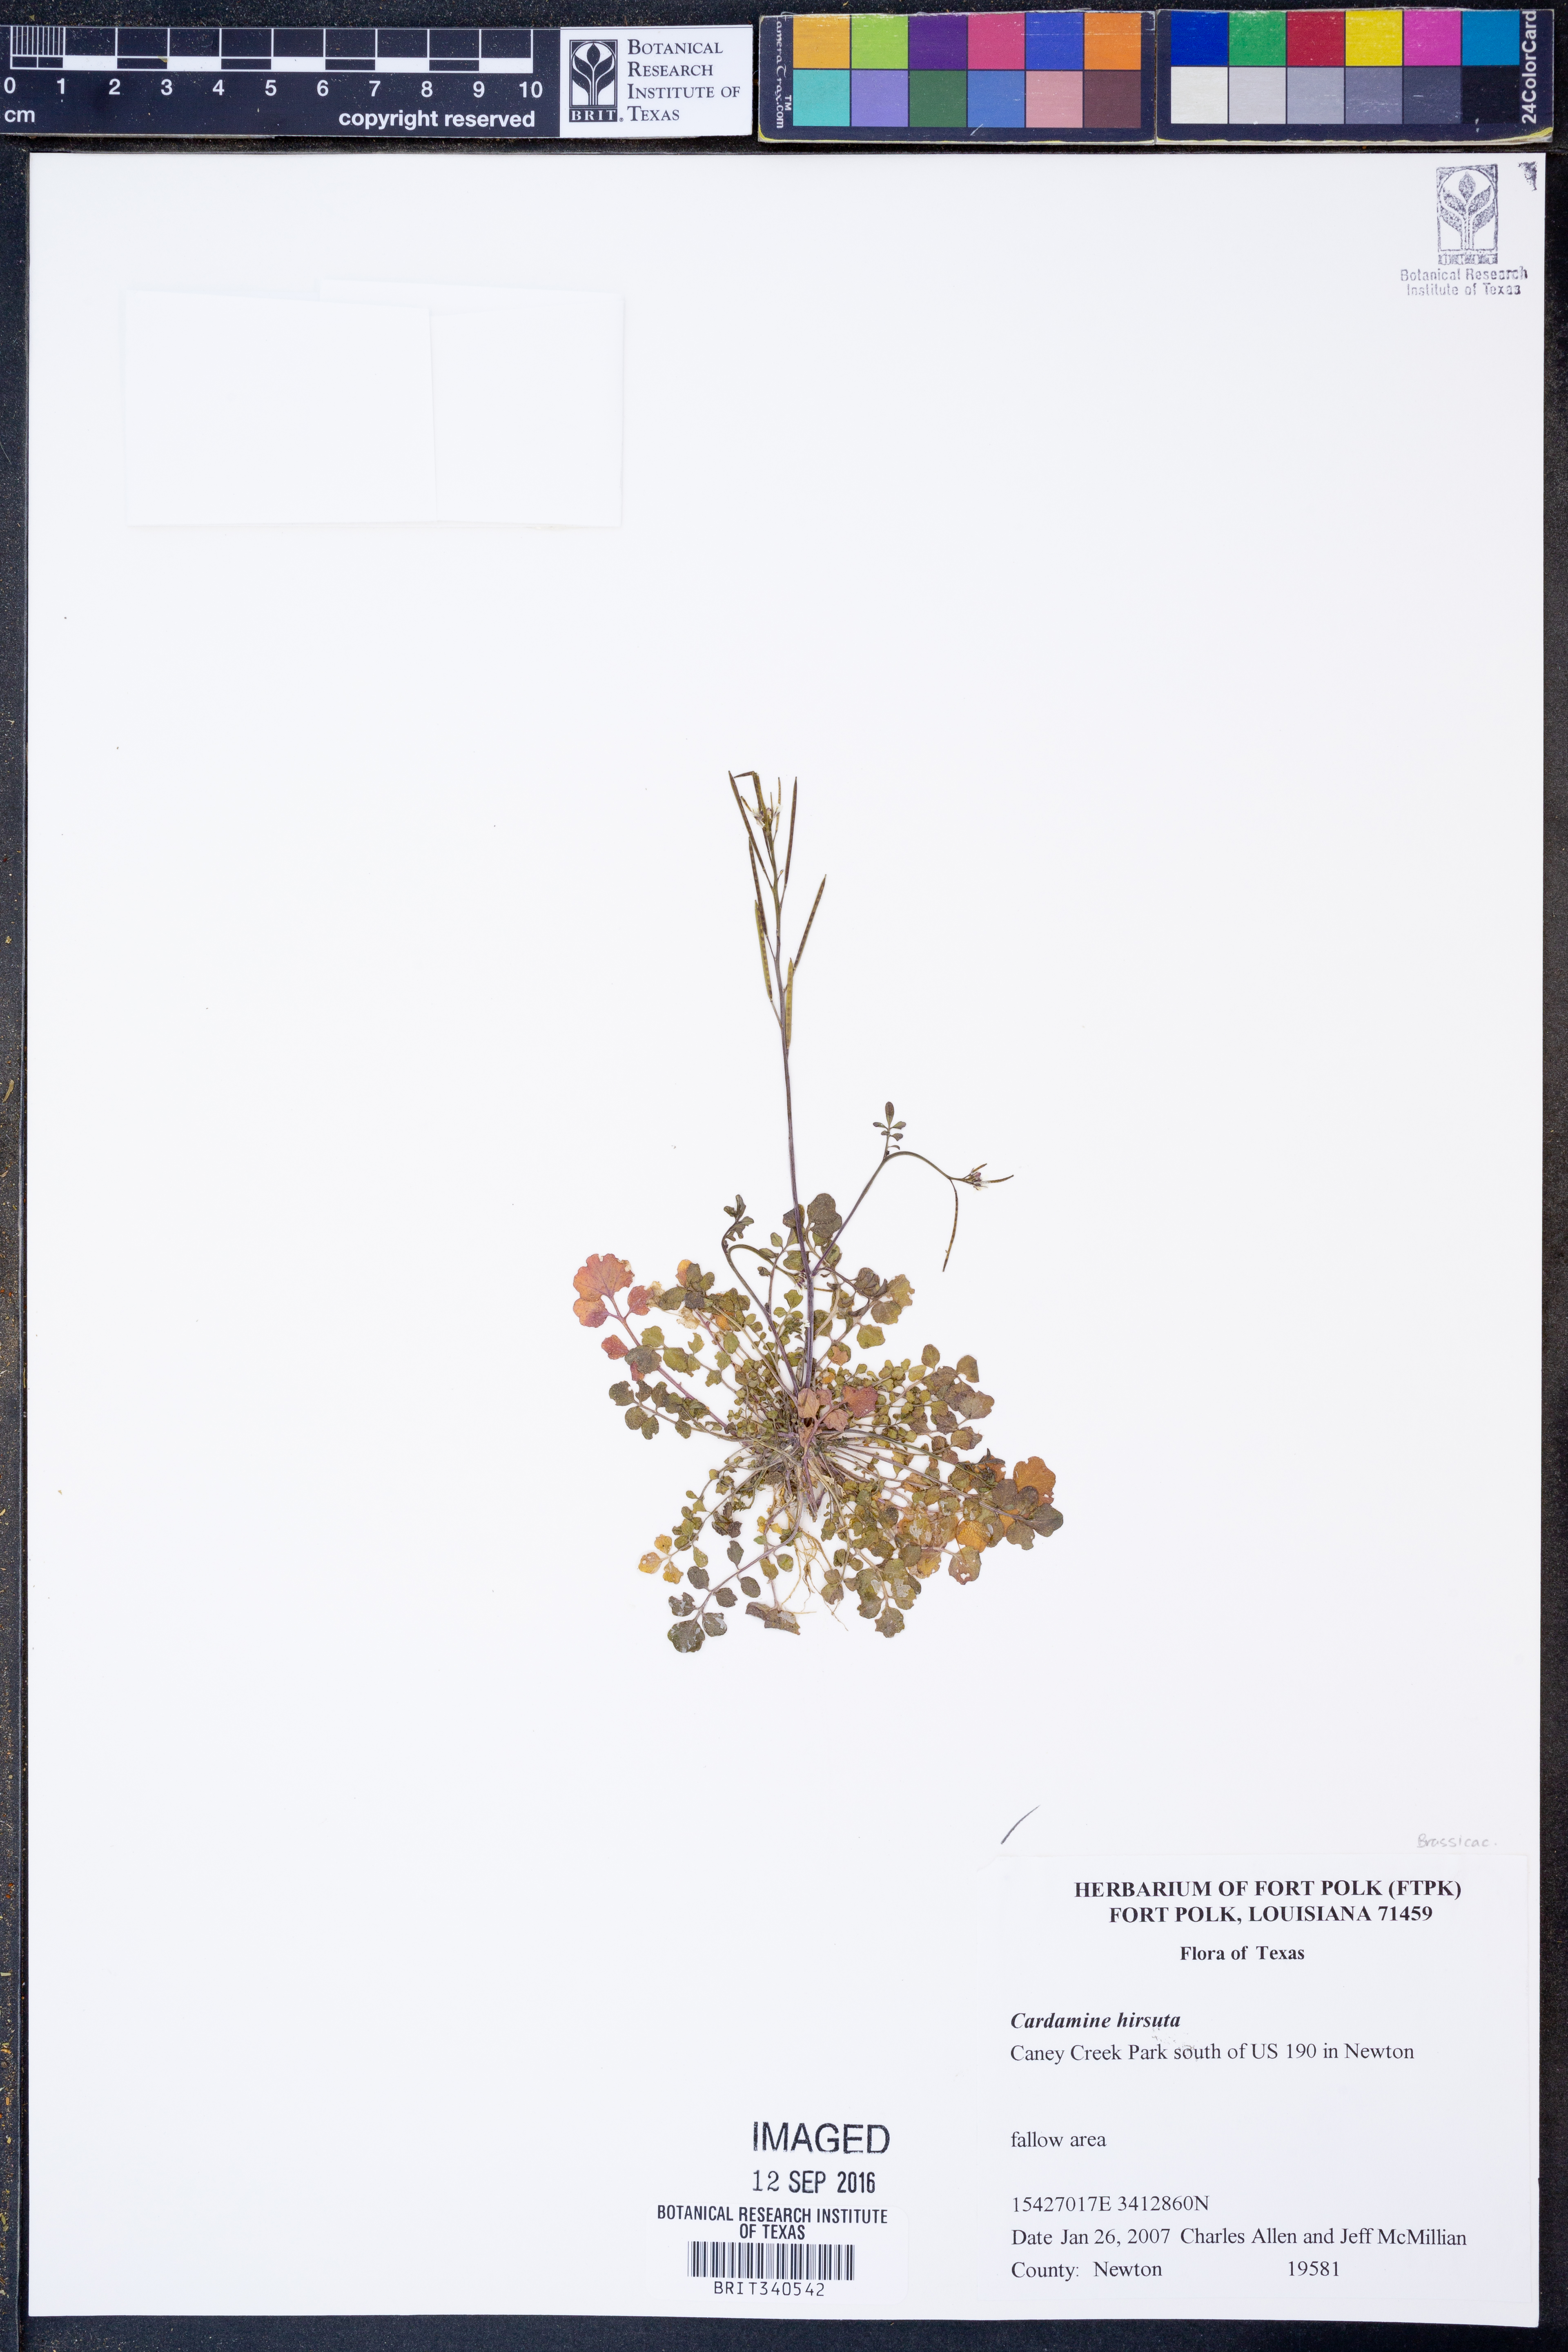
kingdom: Plantae
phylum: Tracheophyta
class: Magnoliopsida
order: Brassicales
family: Brassicaceae
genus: Cardamine
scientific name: Cardamine hirsuta
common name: Hairy bittercress
